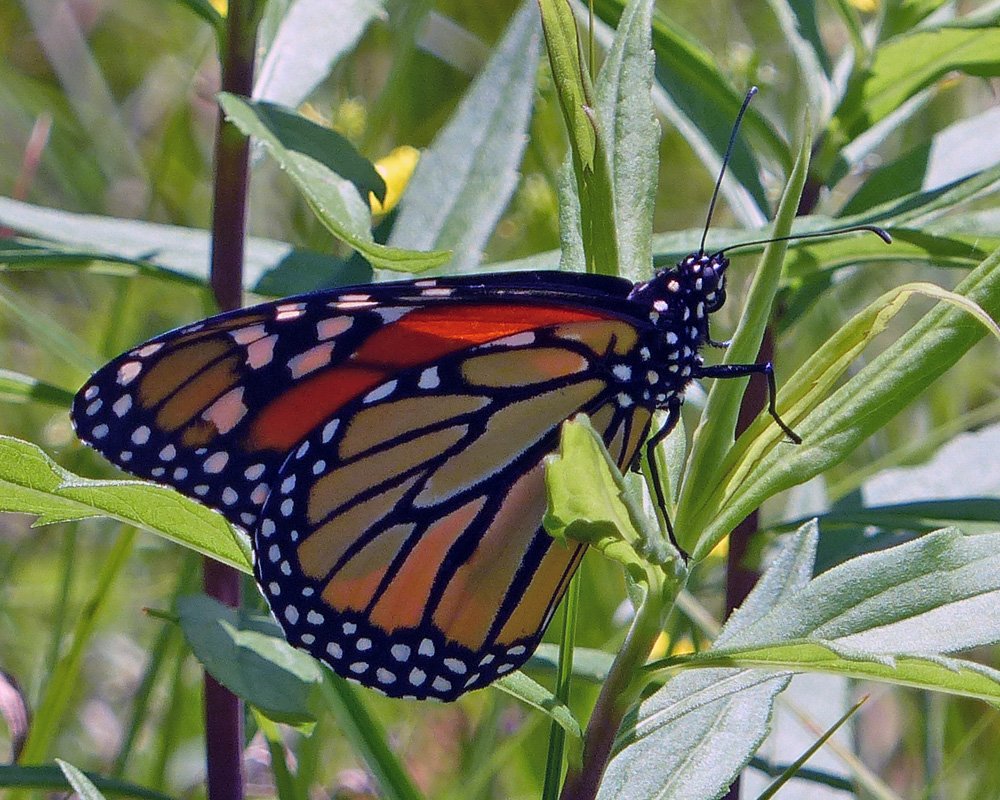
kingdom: Animalia
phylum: Arthropoda
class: Insecta
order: Lepidoptera
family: Nymphalidae
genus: Danaus
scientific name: Danaus plexippus
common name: Monarch
